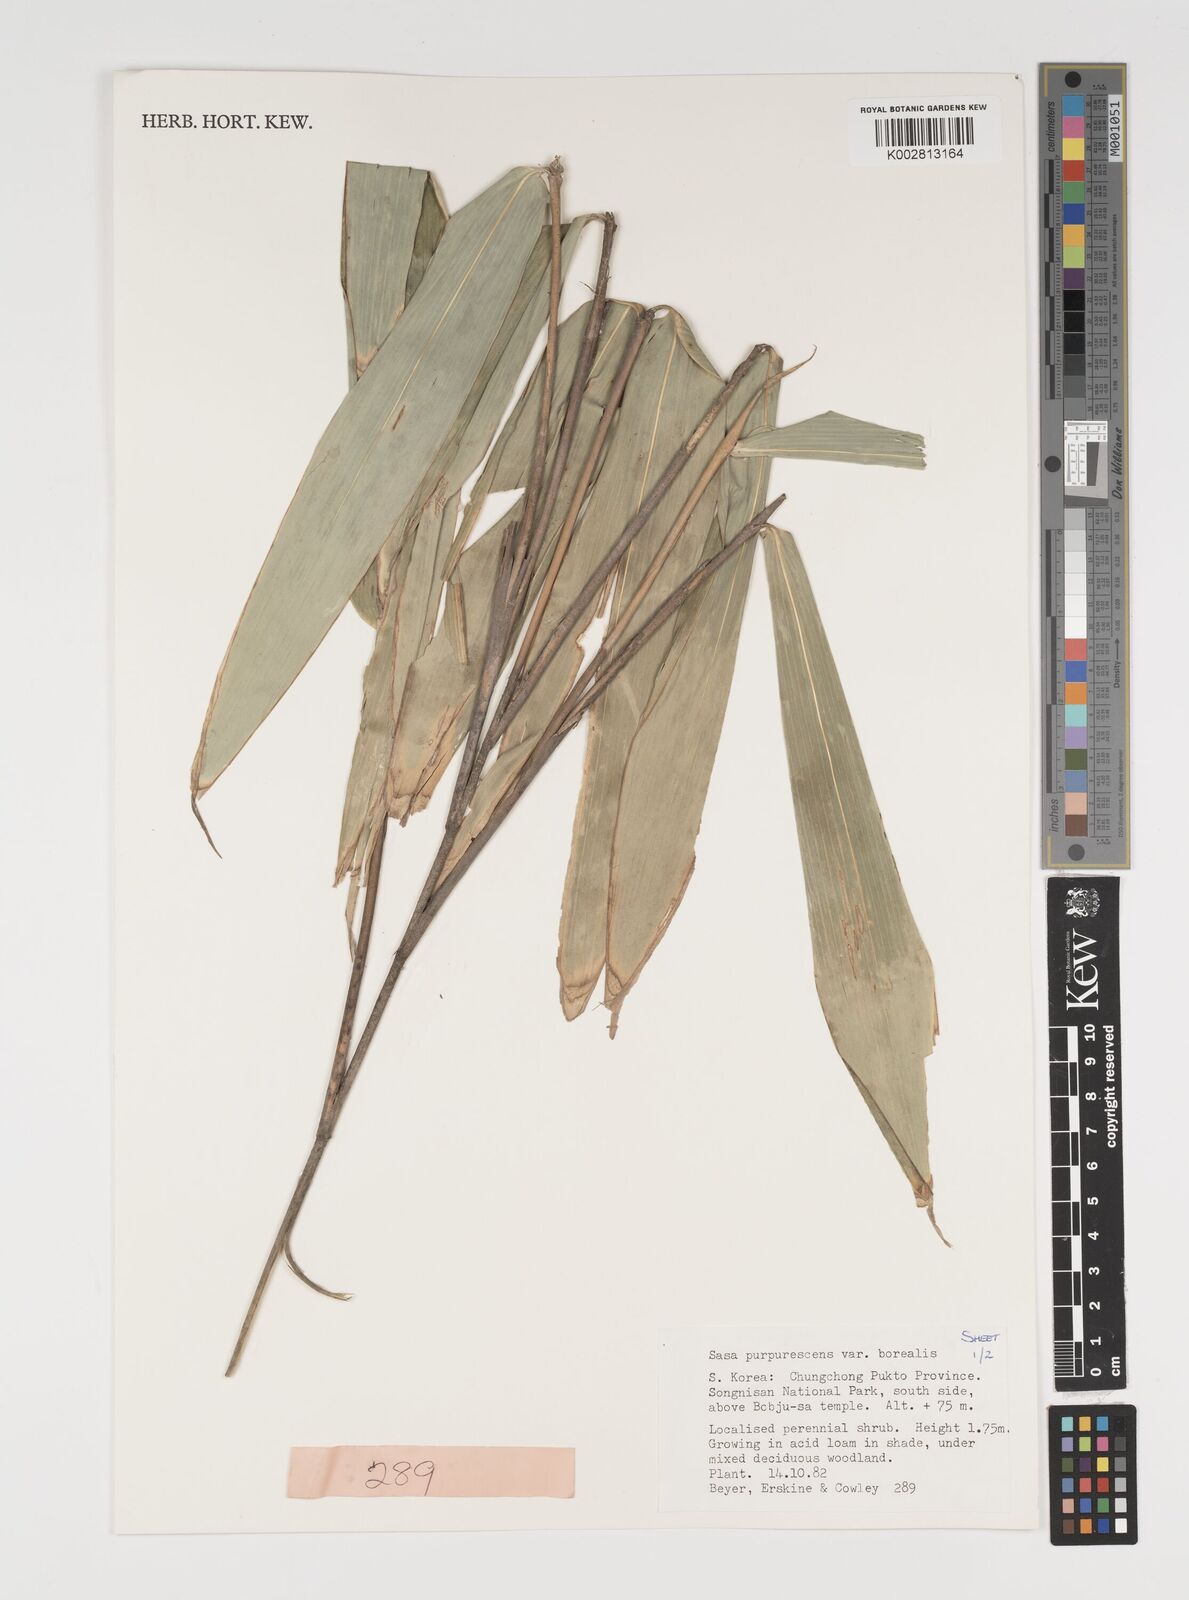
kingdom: Plantae
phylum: Tracheophyta
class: Liliopsida
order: Poales
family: Poaceae
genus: Sasa
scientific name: Sasa
